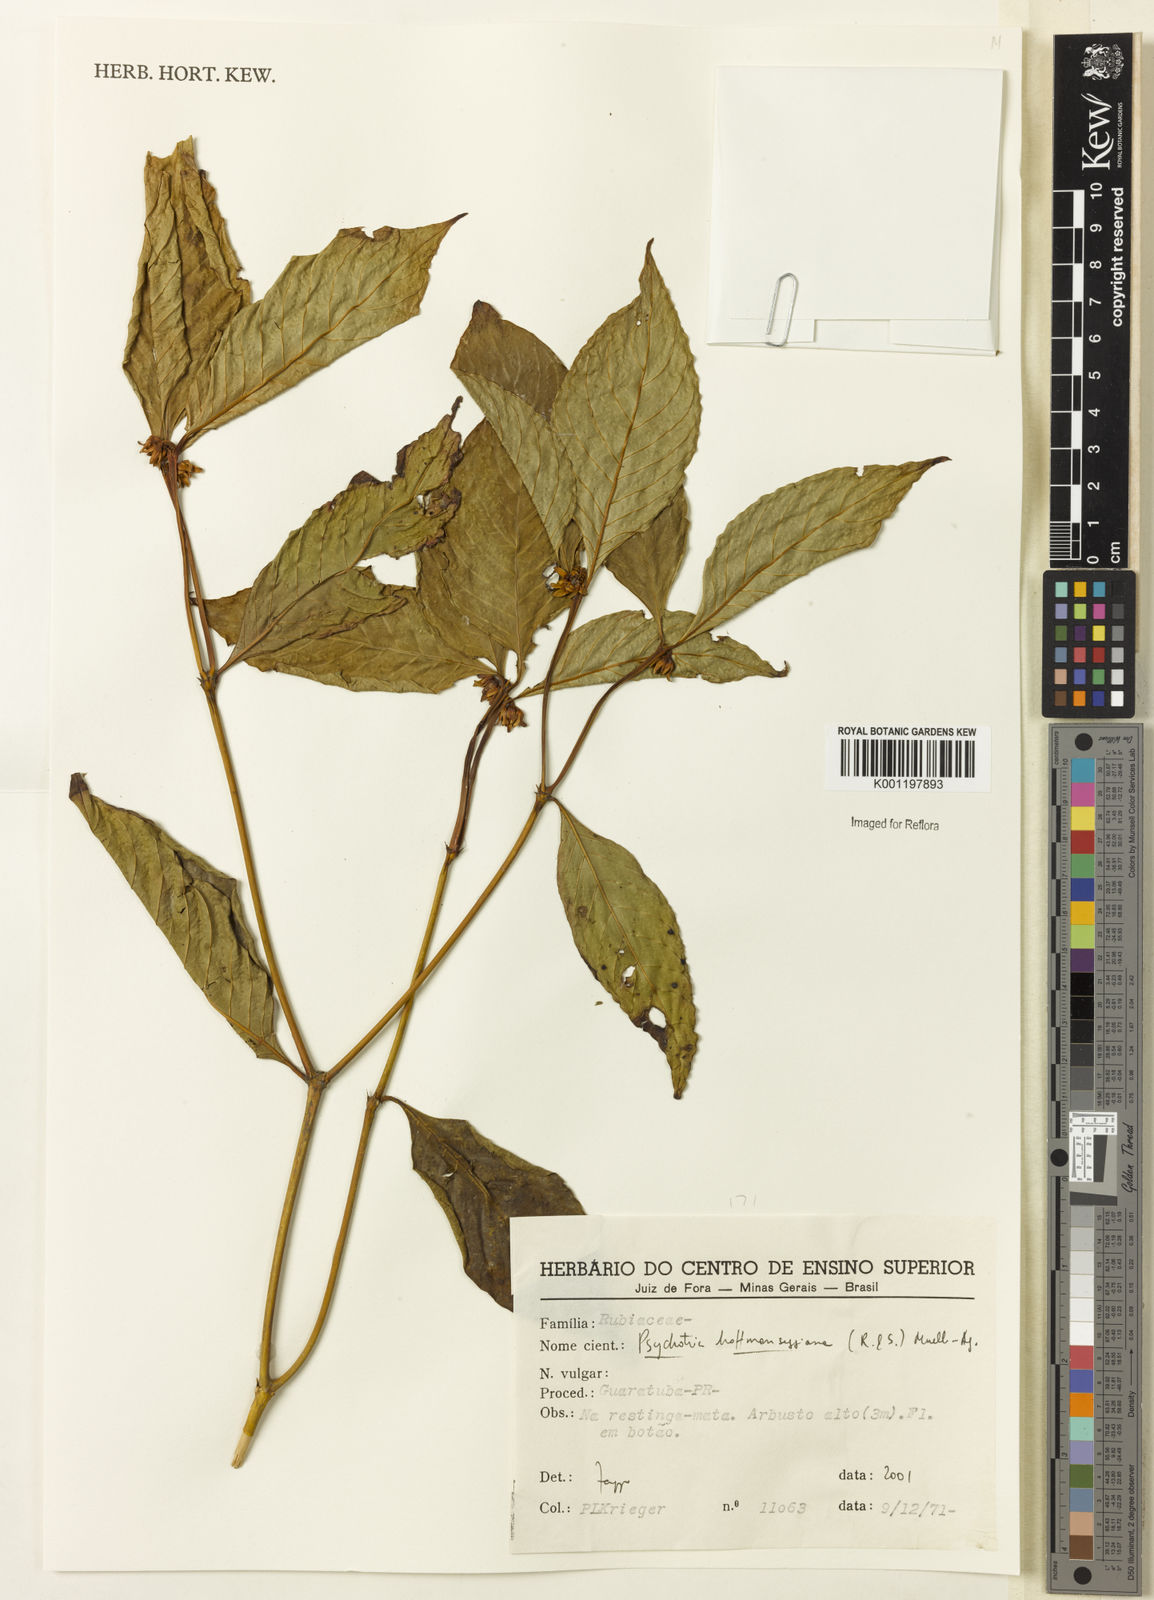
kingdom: Plantae
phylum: Tracheophyta
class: Magnoliopsida
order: Gentianales
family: Rubiaceae
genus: Psychotria
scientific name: Psychotria
